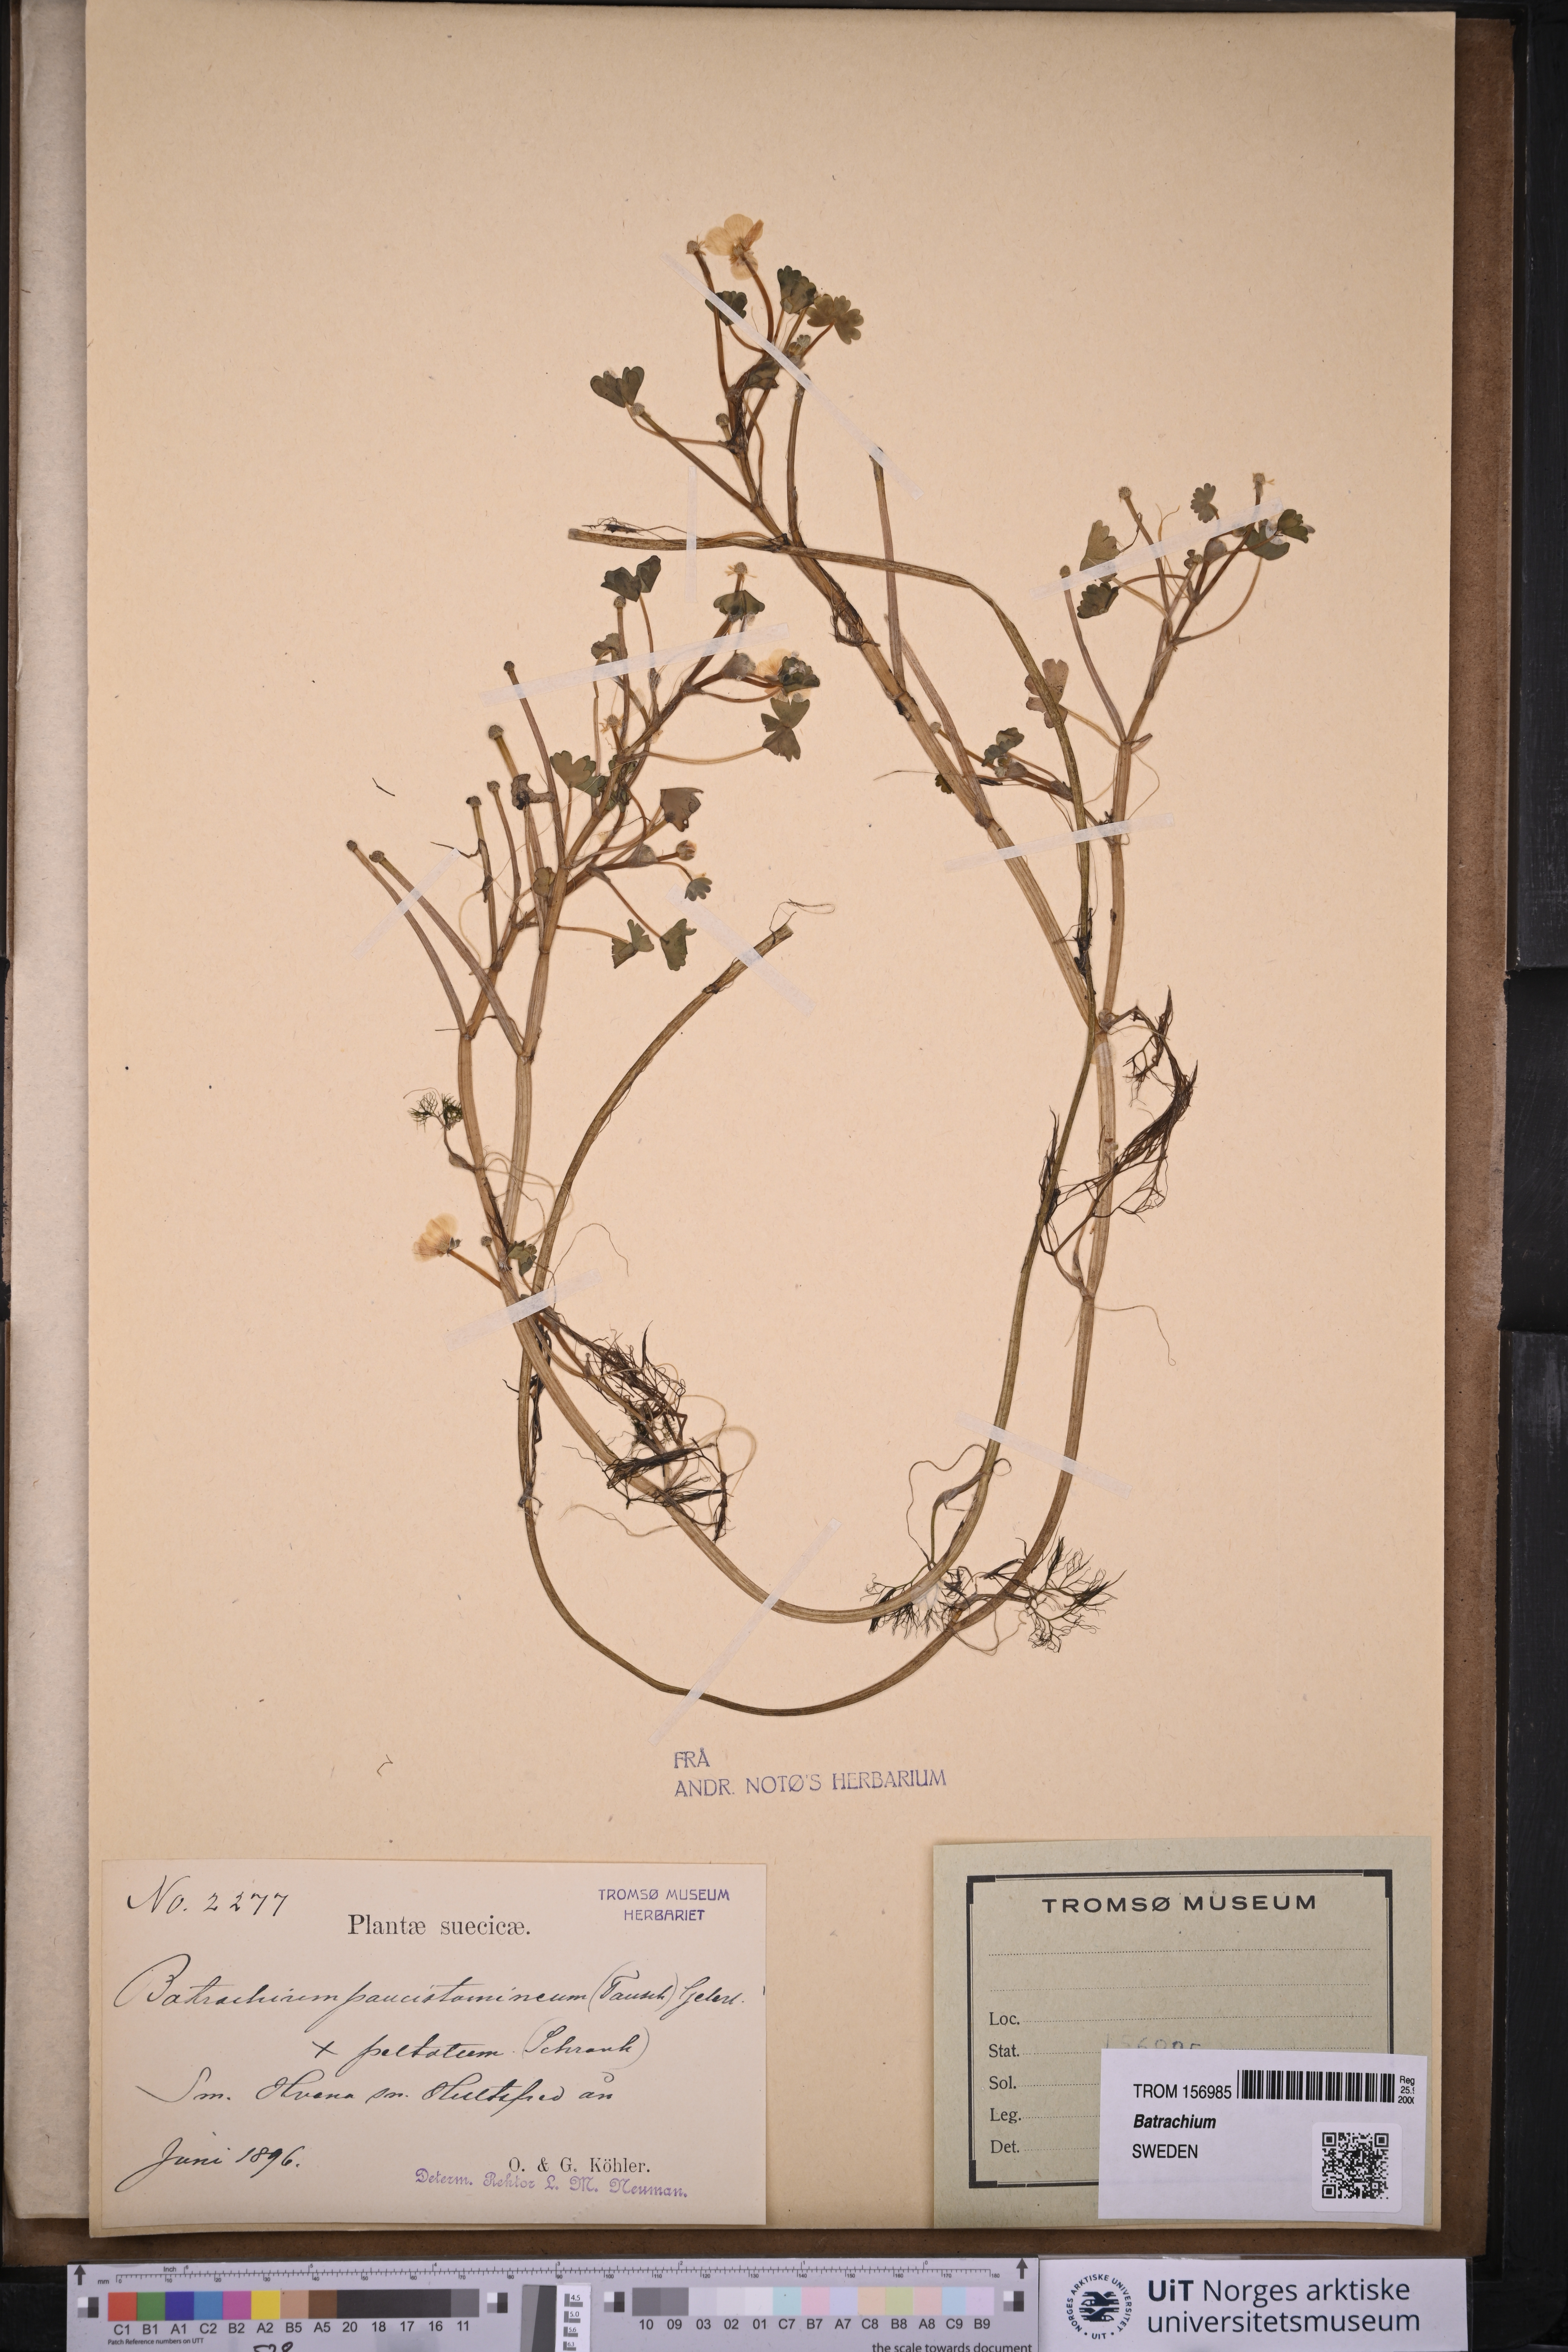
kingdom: Plantae
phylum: Tracheophyta
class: Magnoliopsida
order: Ranunculales
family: Ranunculaceae
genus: Ranunculus
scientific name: Ranunculus
